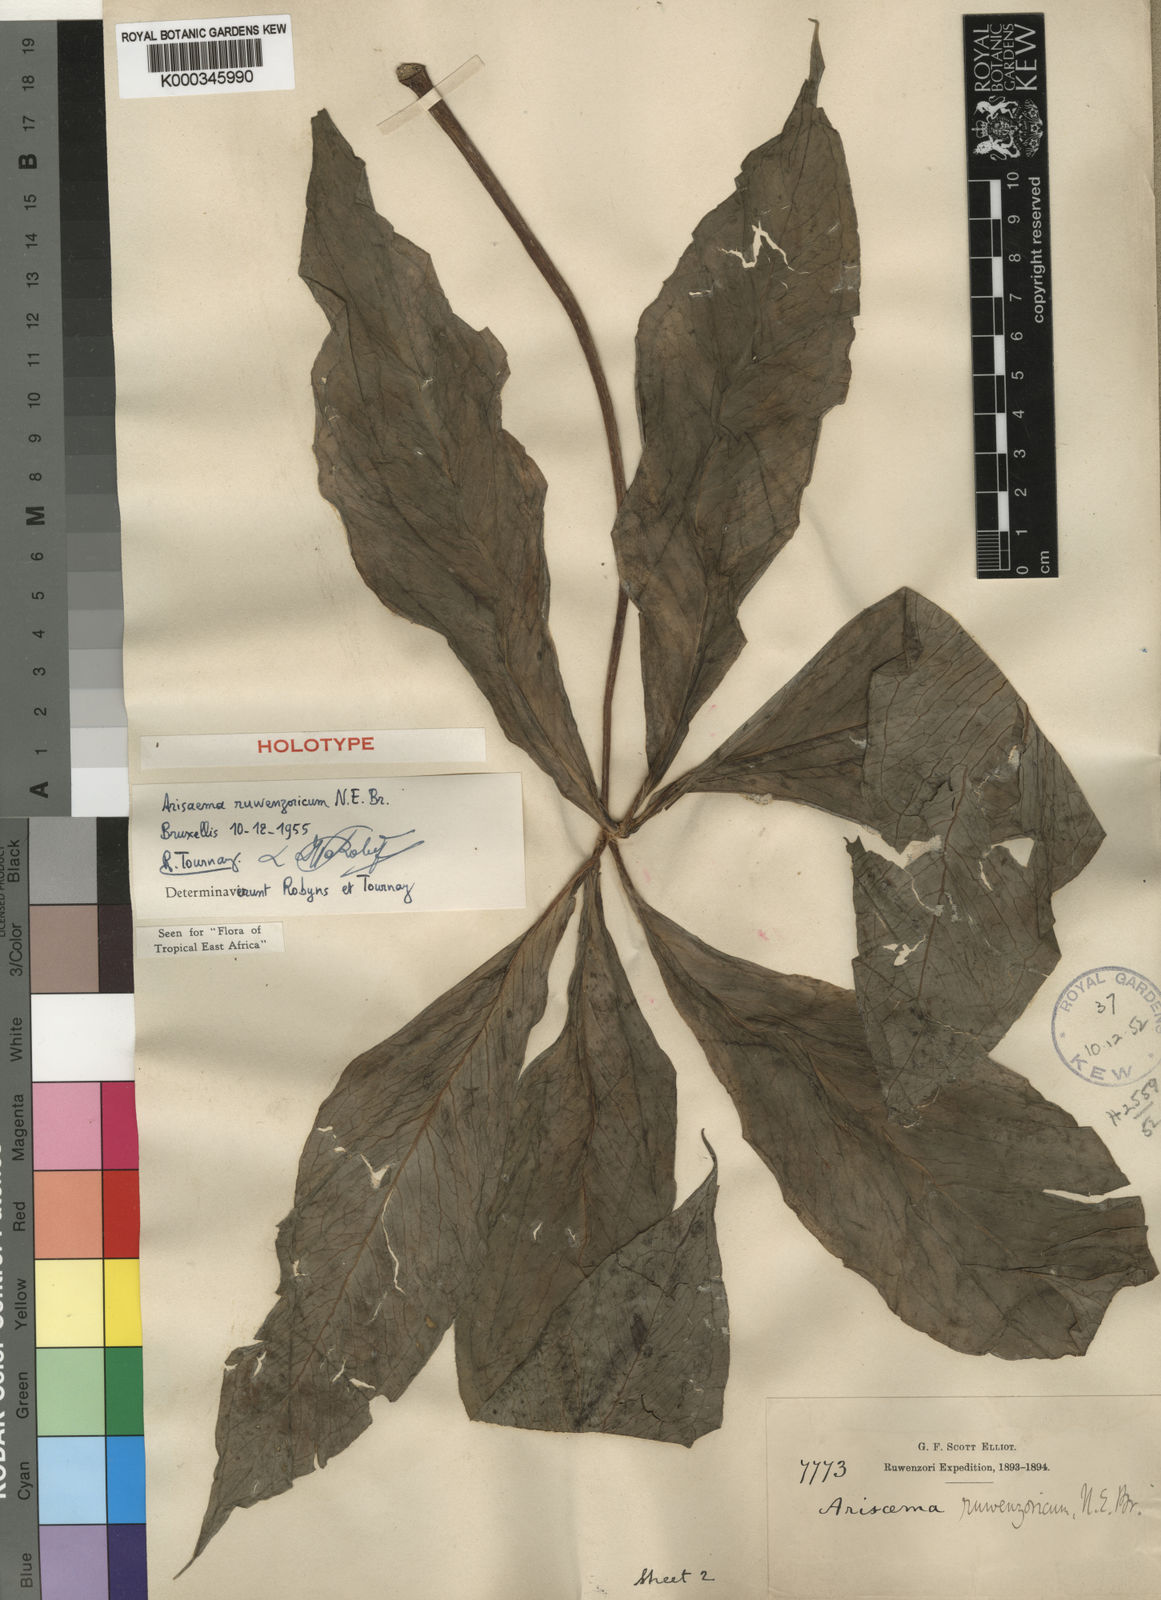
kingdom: Plantae
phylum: Tracheophyta
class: Liliopsida
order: Alismatales
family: Araceae
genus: Arisaema
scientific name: Arisaema ruwenzoricum
